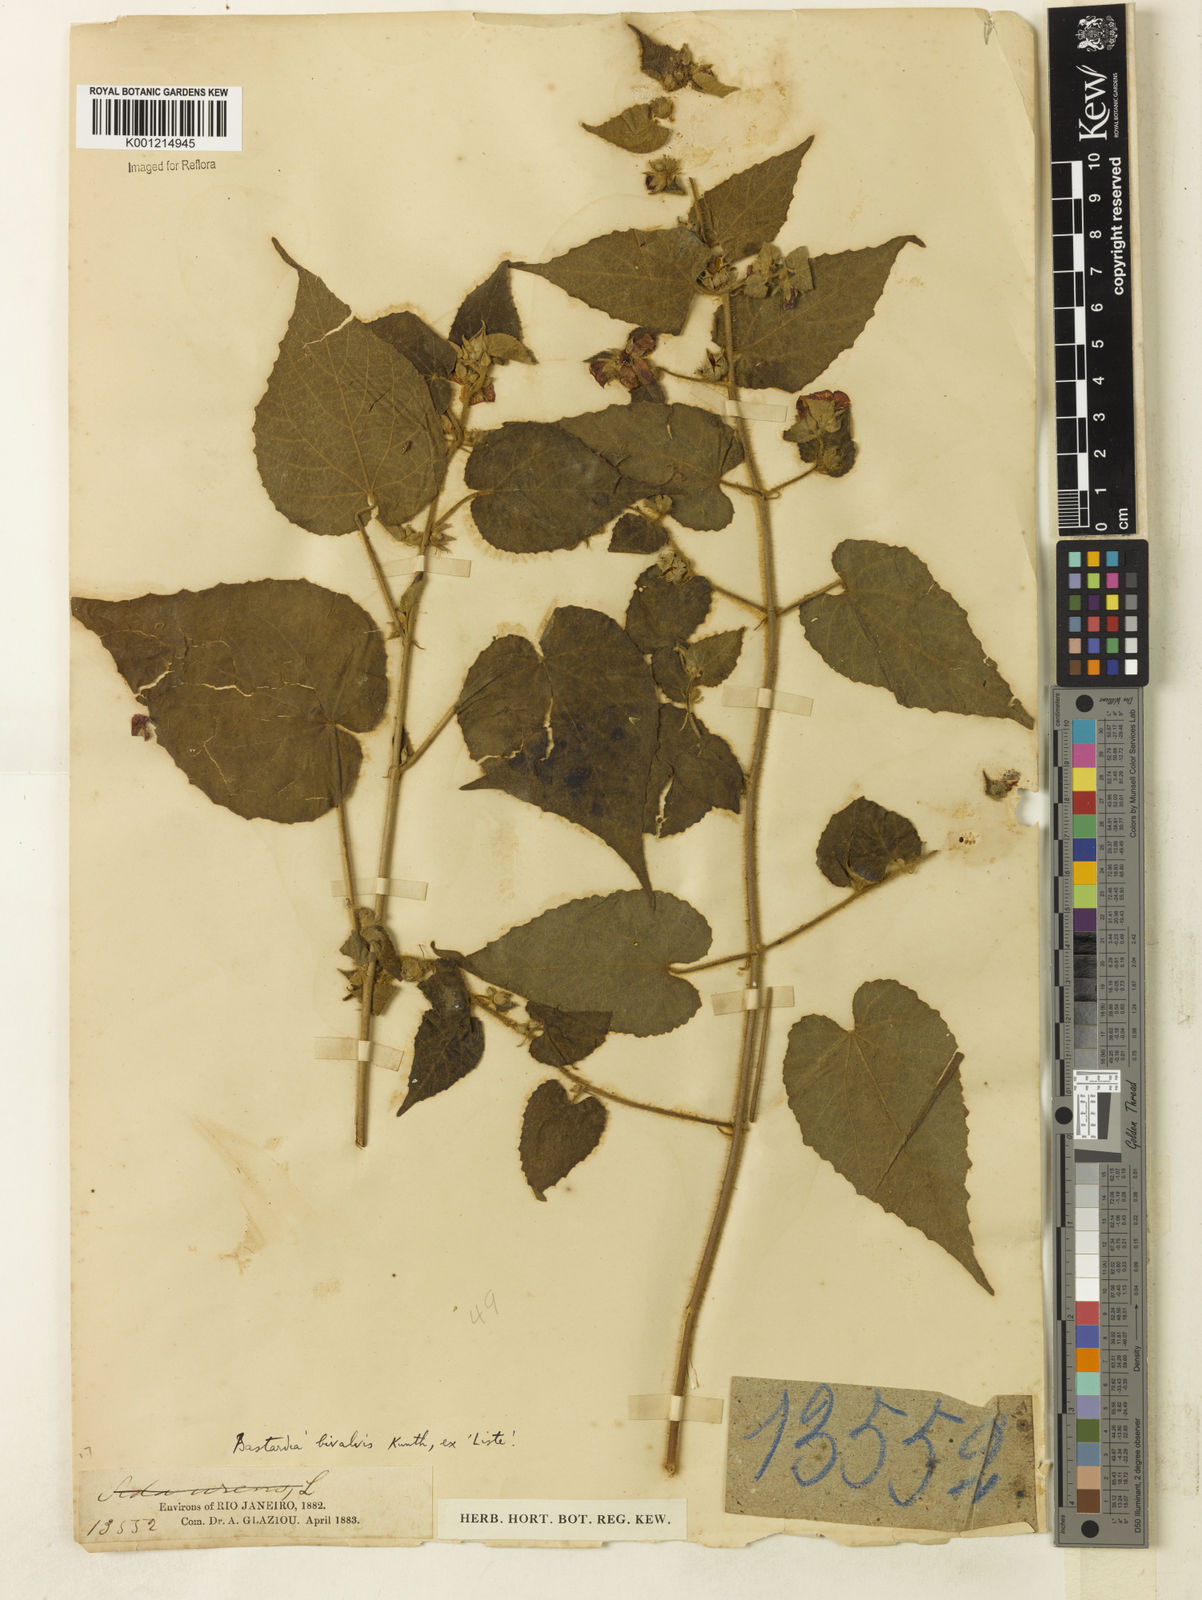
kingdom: Plantae
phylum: Tracheophyta
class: Magnoliopsida
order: Malvales
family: Malvaceae
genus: Abutilon
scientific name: Abutilon
